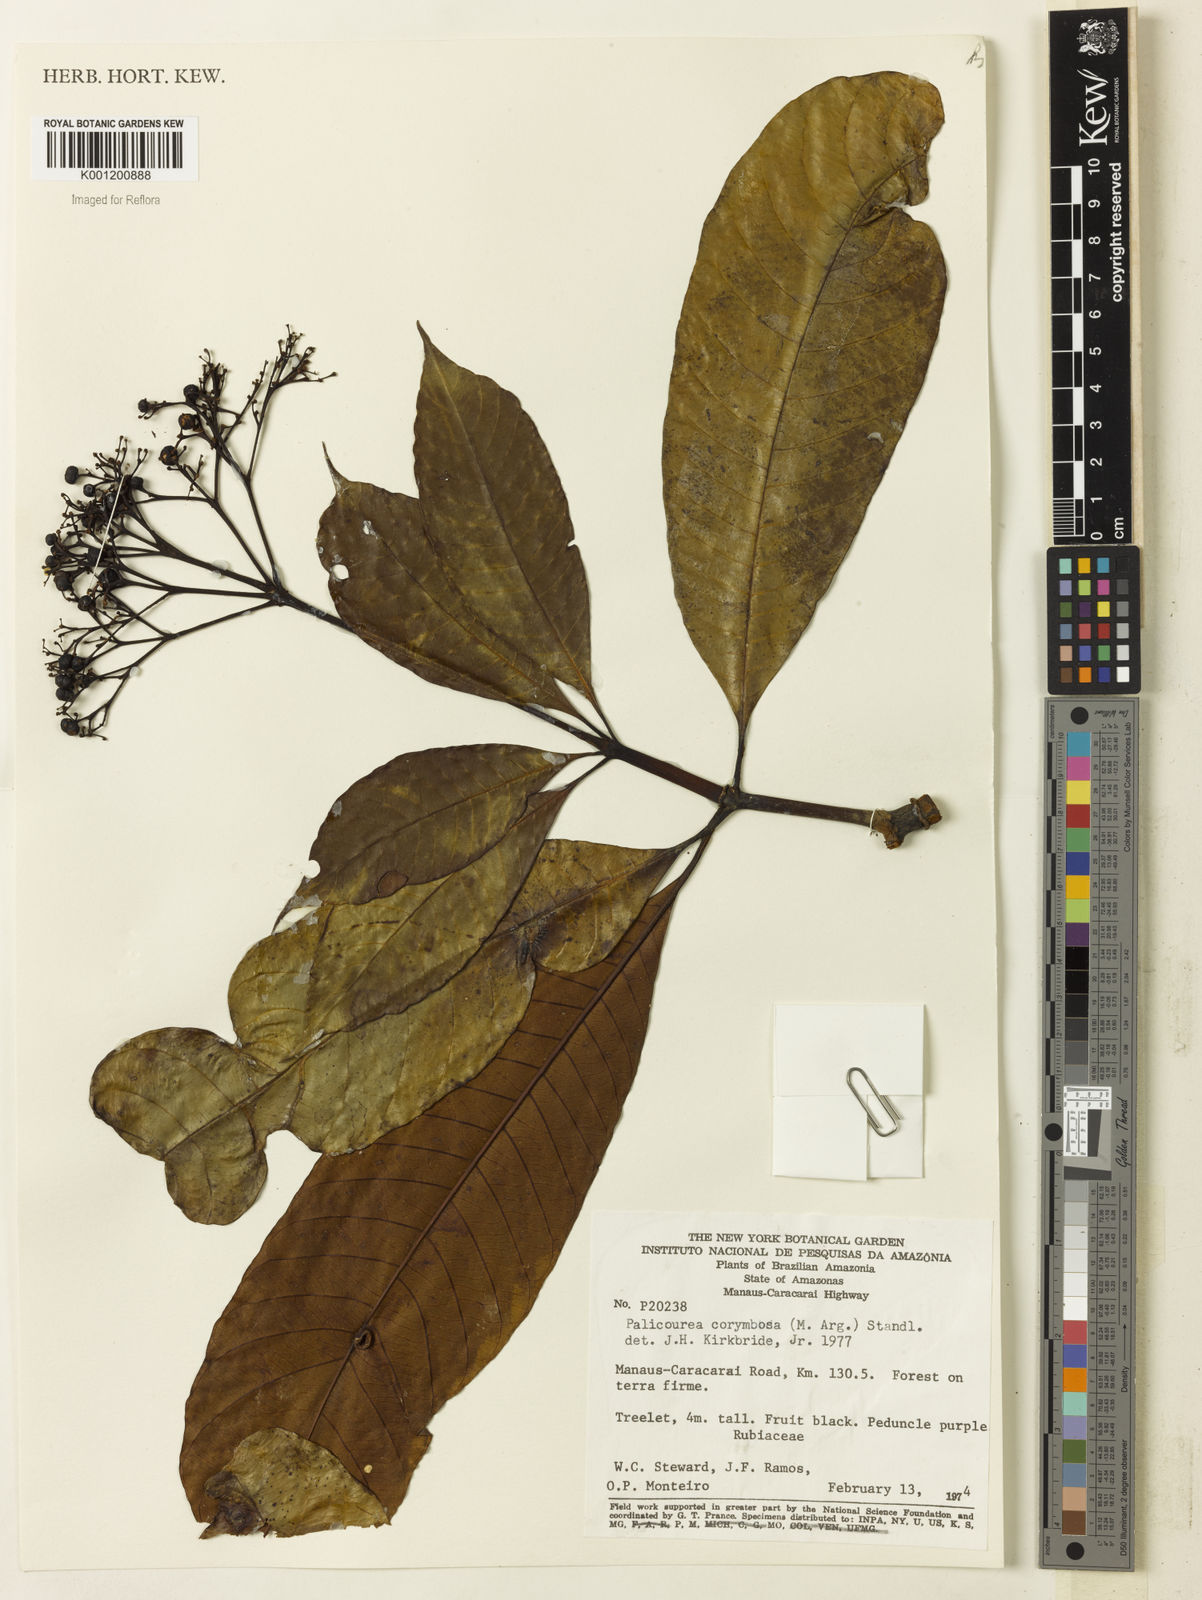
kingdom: Plantae
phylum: Tracheophyta
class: Magnoliopsida
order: Gentianales
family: Rubiaceae
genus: Palicourea
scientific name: Palicourea
